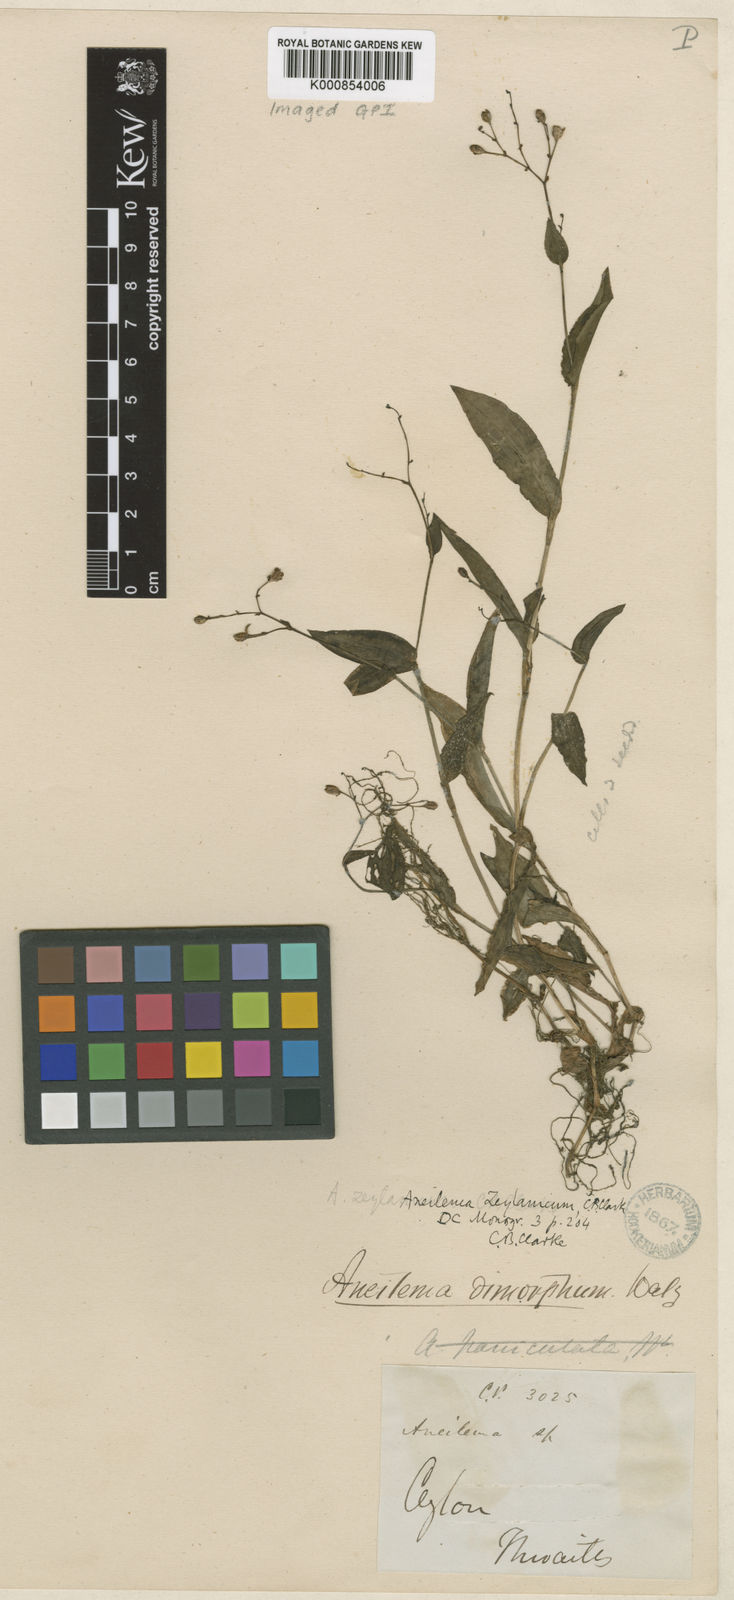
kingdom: Plantae
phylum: Tracheophyta
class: Liliopsida
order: Commelinales
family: Commelinaceae
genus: Murdannia
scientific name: Murdannia
